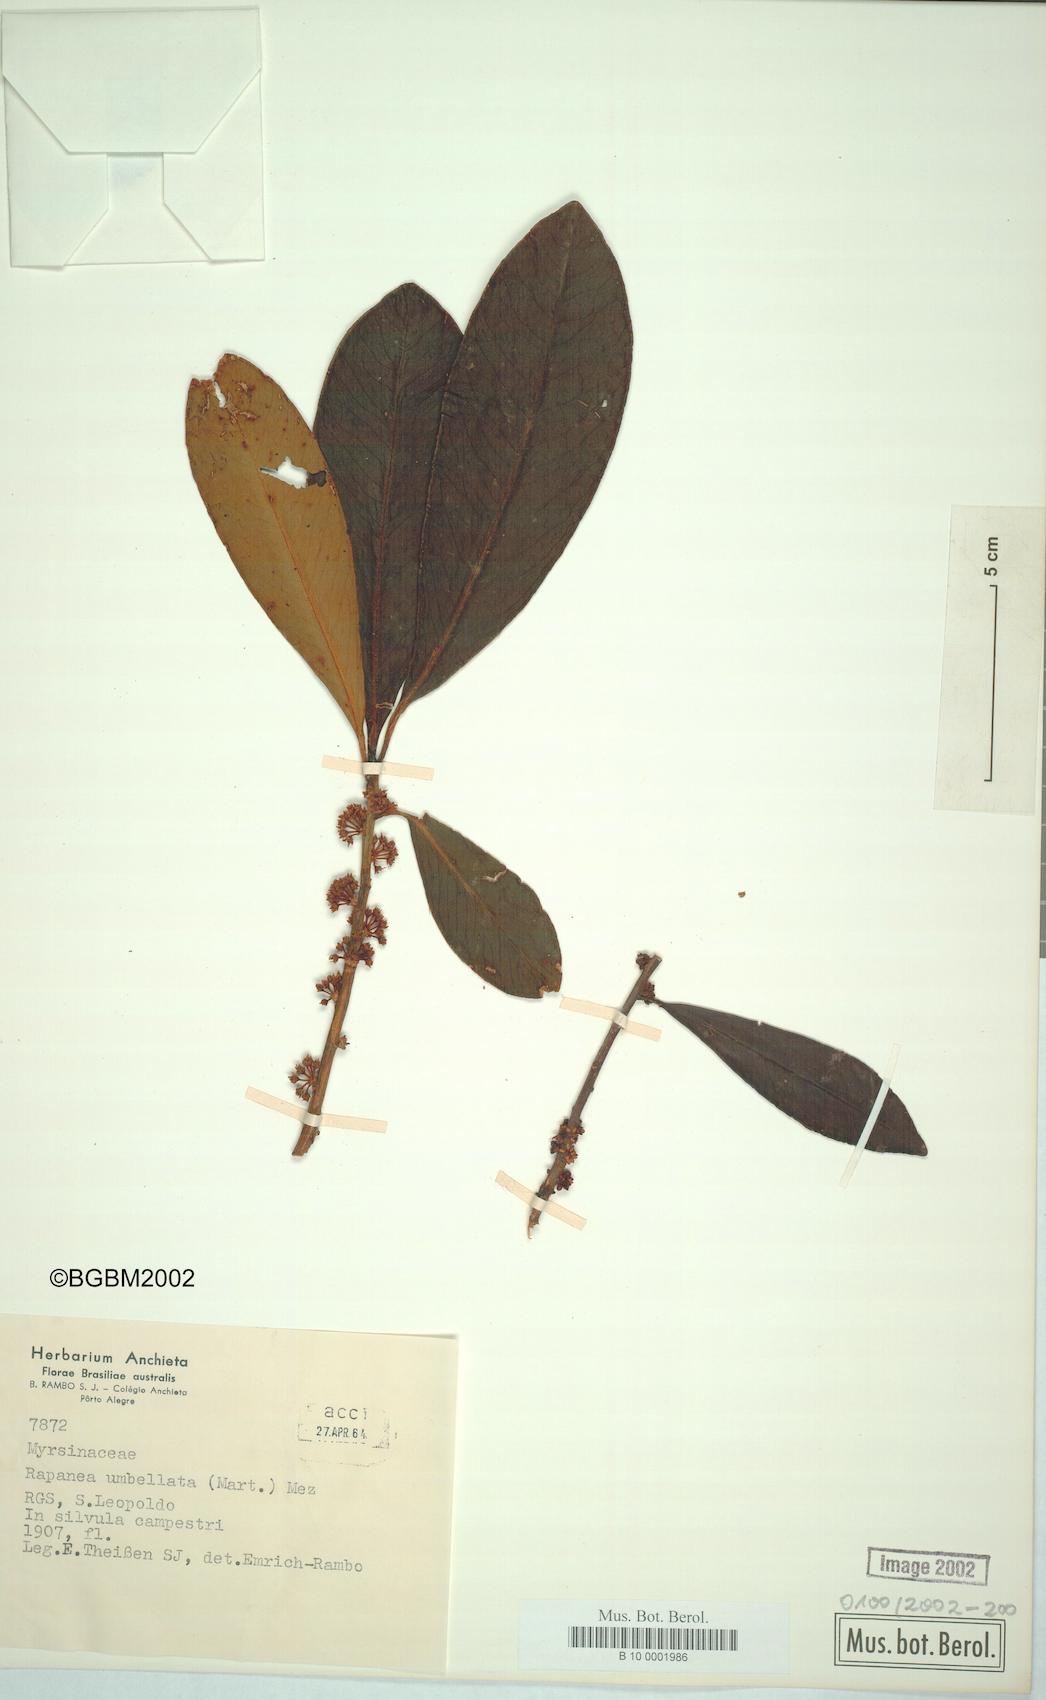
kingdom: Plantae
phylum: Tracheophyta
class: Magnoliopsida
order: Ericales
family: Primulaceae
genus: Myrsine
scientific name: Myrsine umbellata
